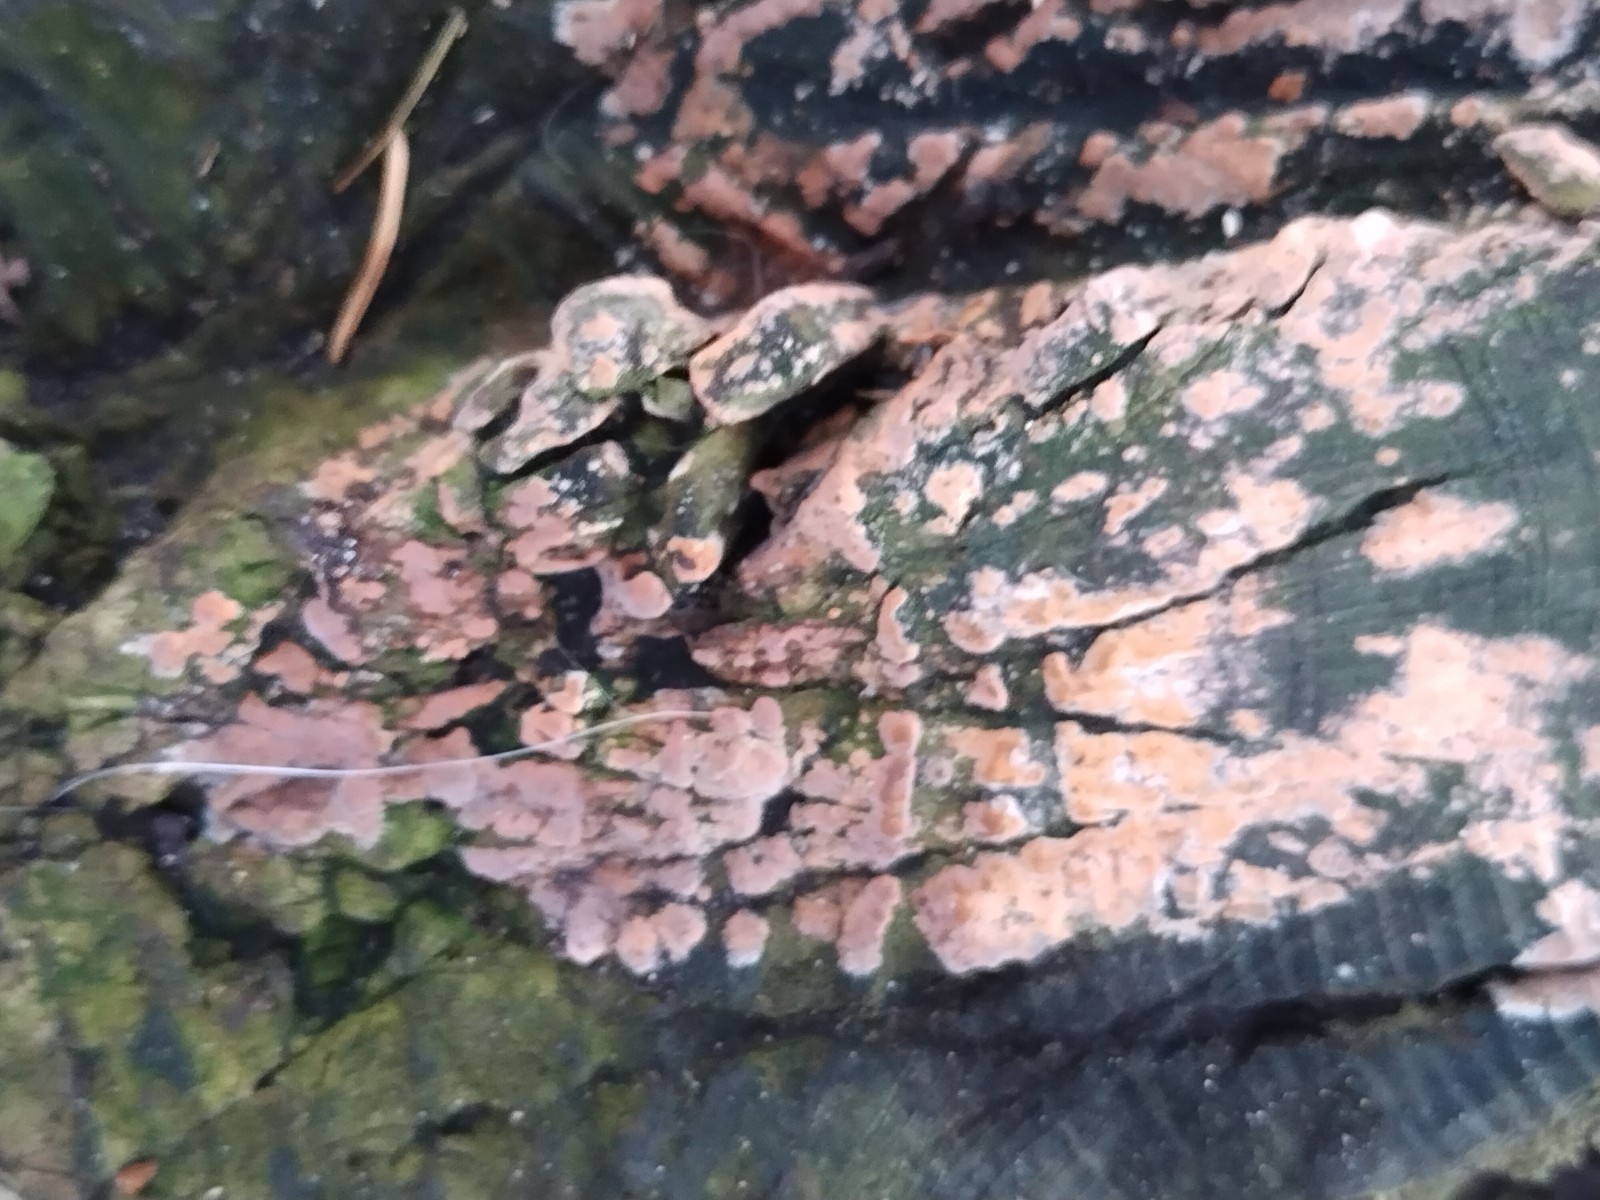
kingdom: Fungi
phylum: Basidiomycota
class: Agaricomycetes
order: Russulales
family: Peniophoraceae
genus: Peniophora
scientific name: Peniophora incarnata
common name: laksefarvet voksskind
